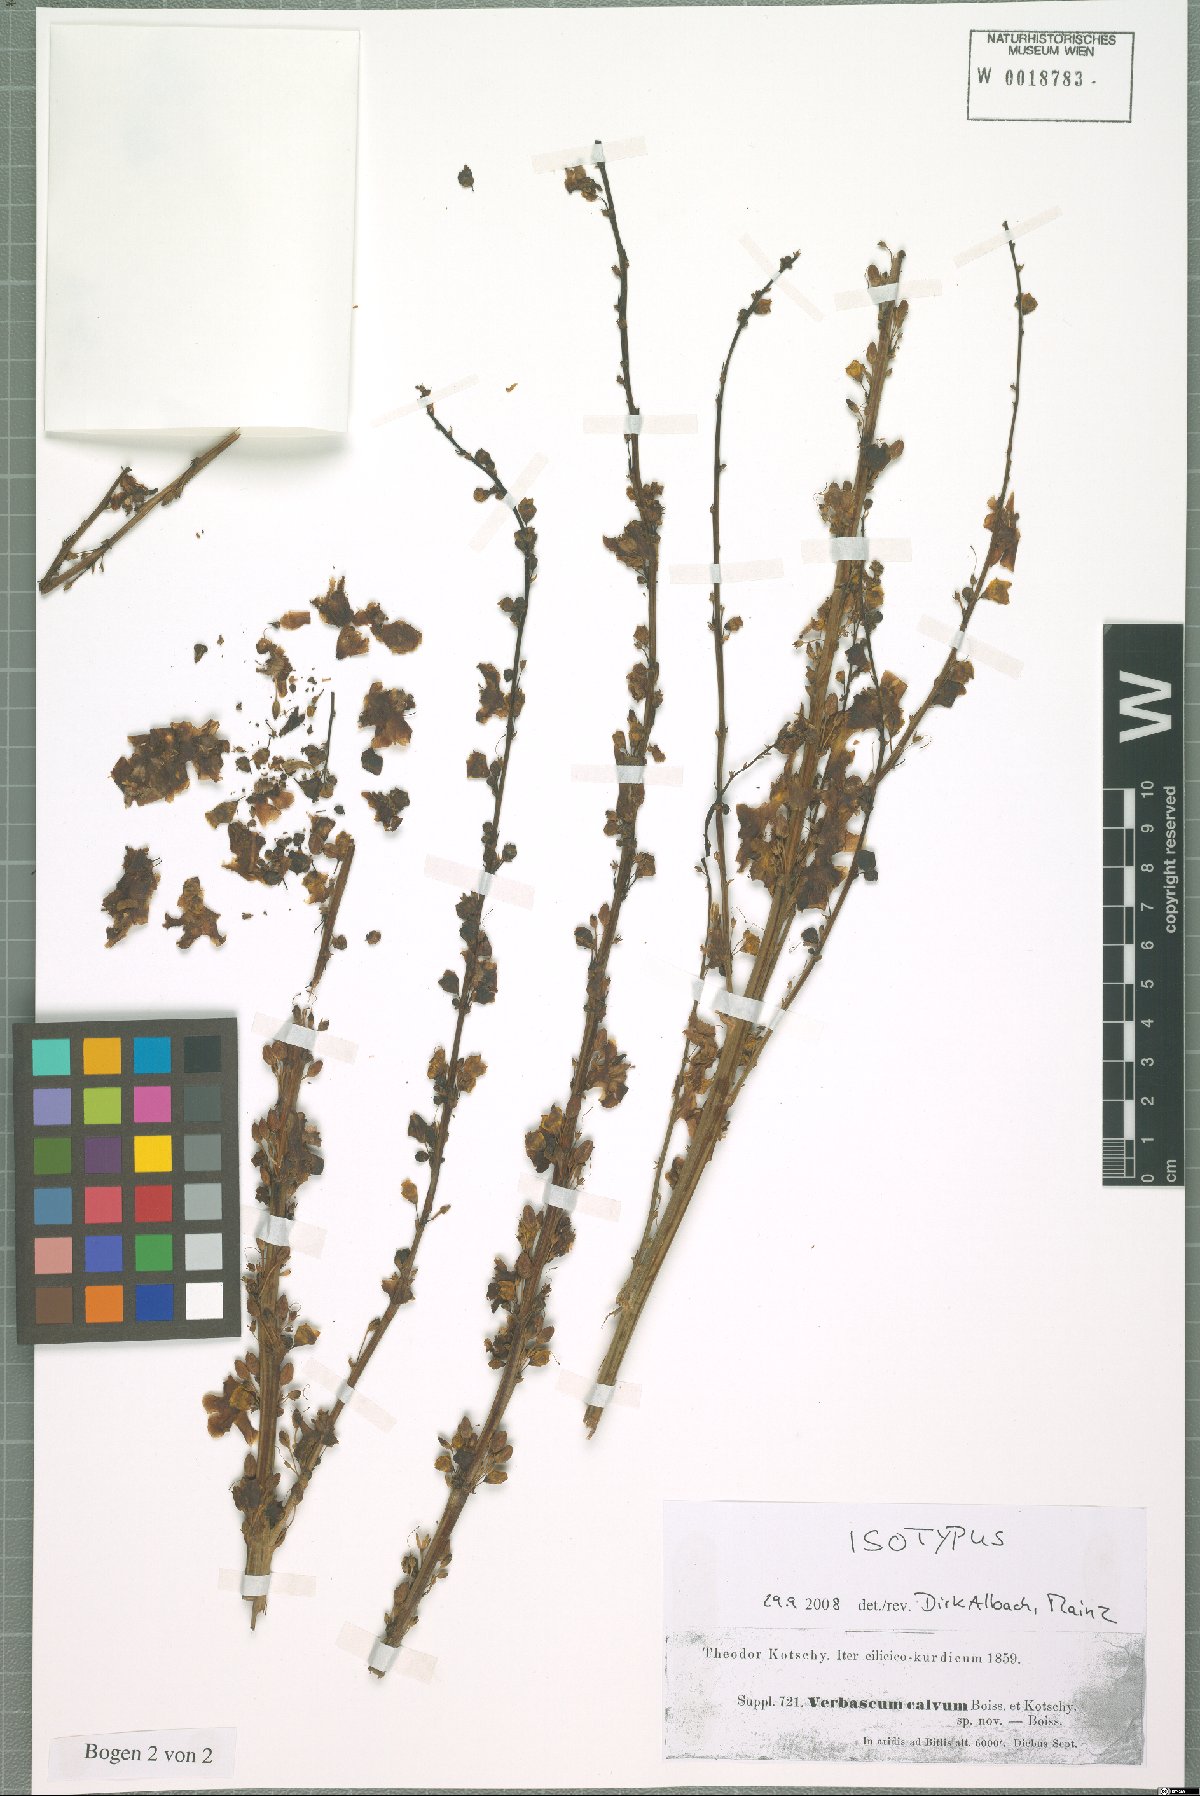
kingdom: Plantae
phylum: Tracheophyta
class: Magnoliopsida
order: Lamiales
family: Scrophulariaceae
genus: Verbascum
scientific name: Verbascum calvum
